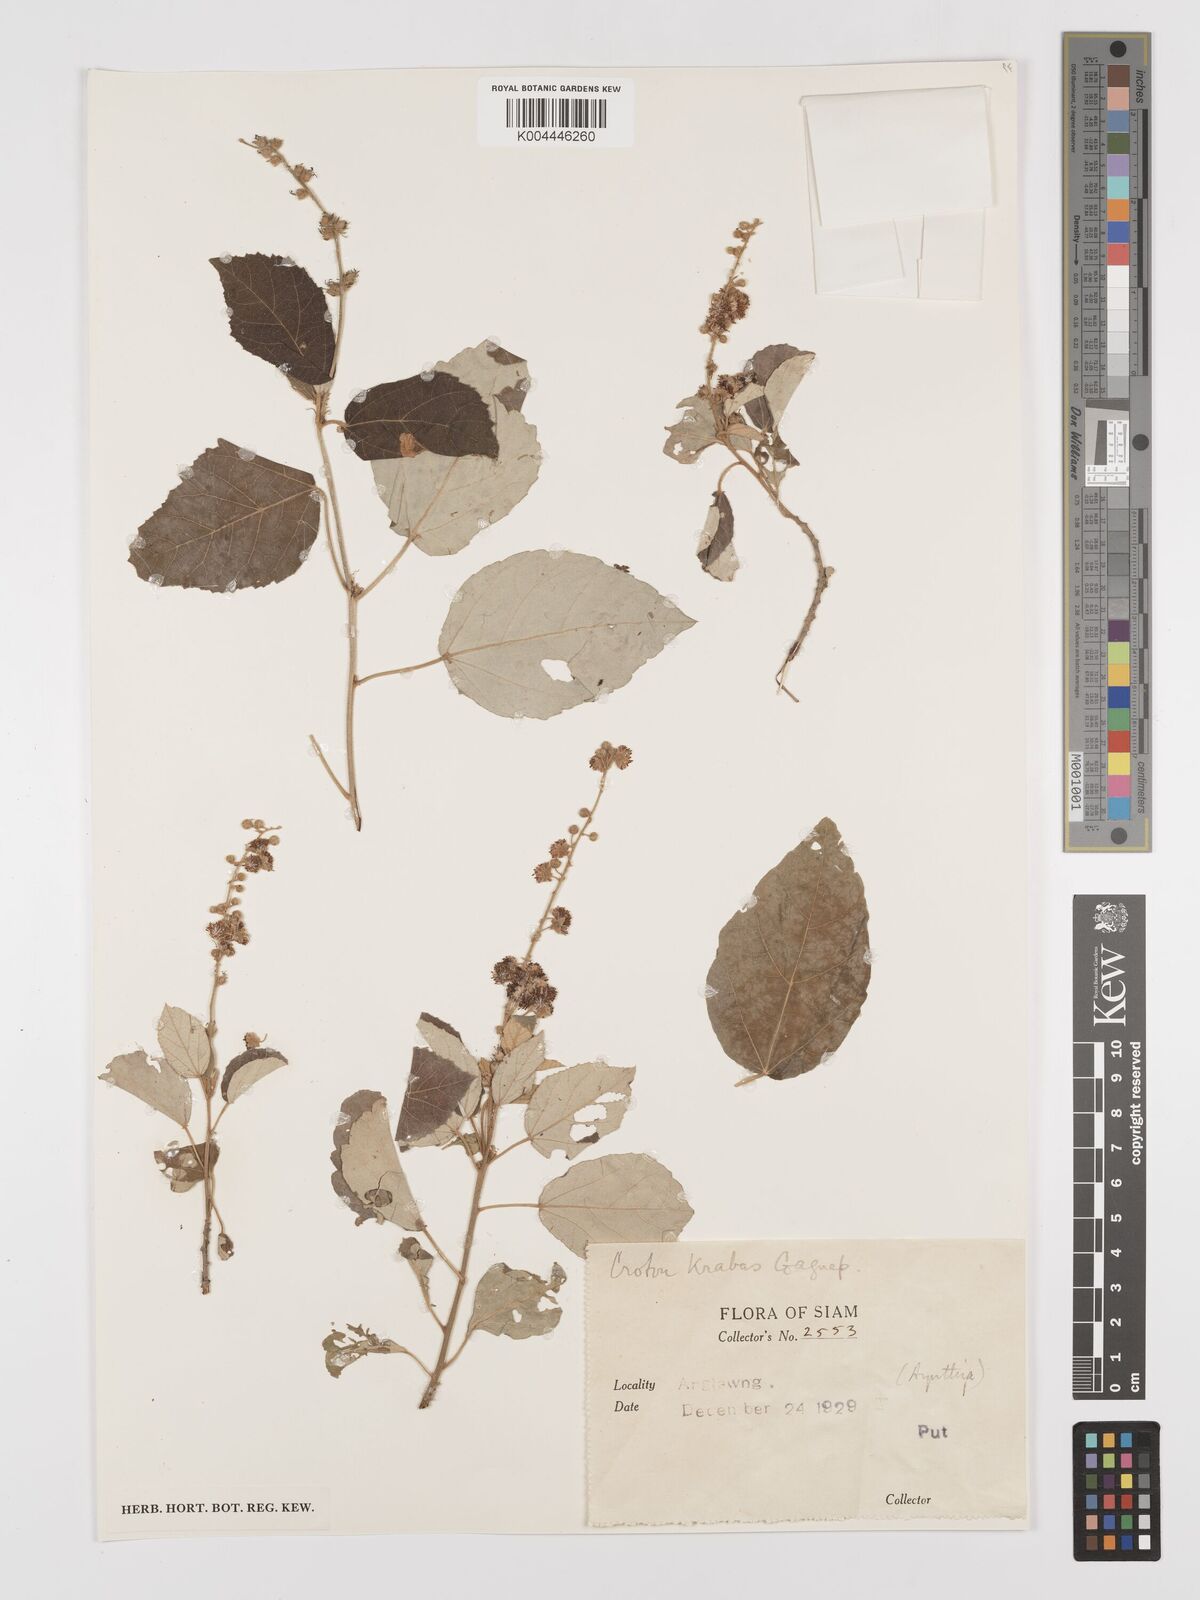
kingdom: Plantae
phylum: Tracheophyta
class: Magnoliopsida
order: Malpighiales
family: Euphorbiaceae
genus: Croton
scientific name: Croton krabas
